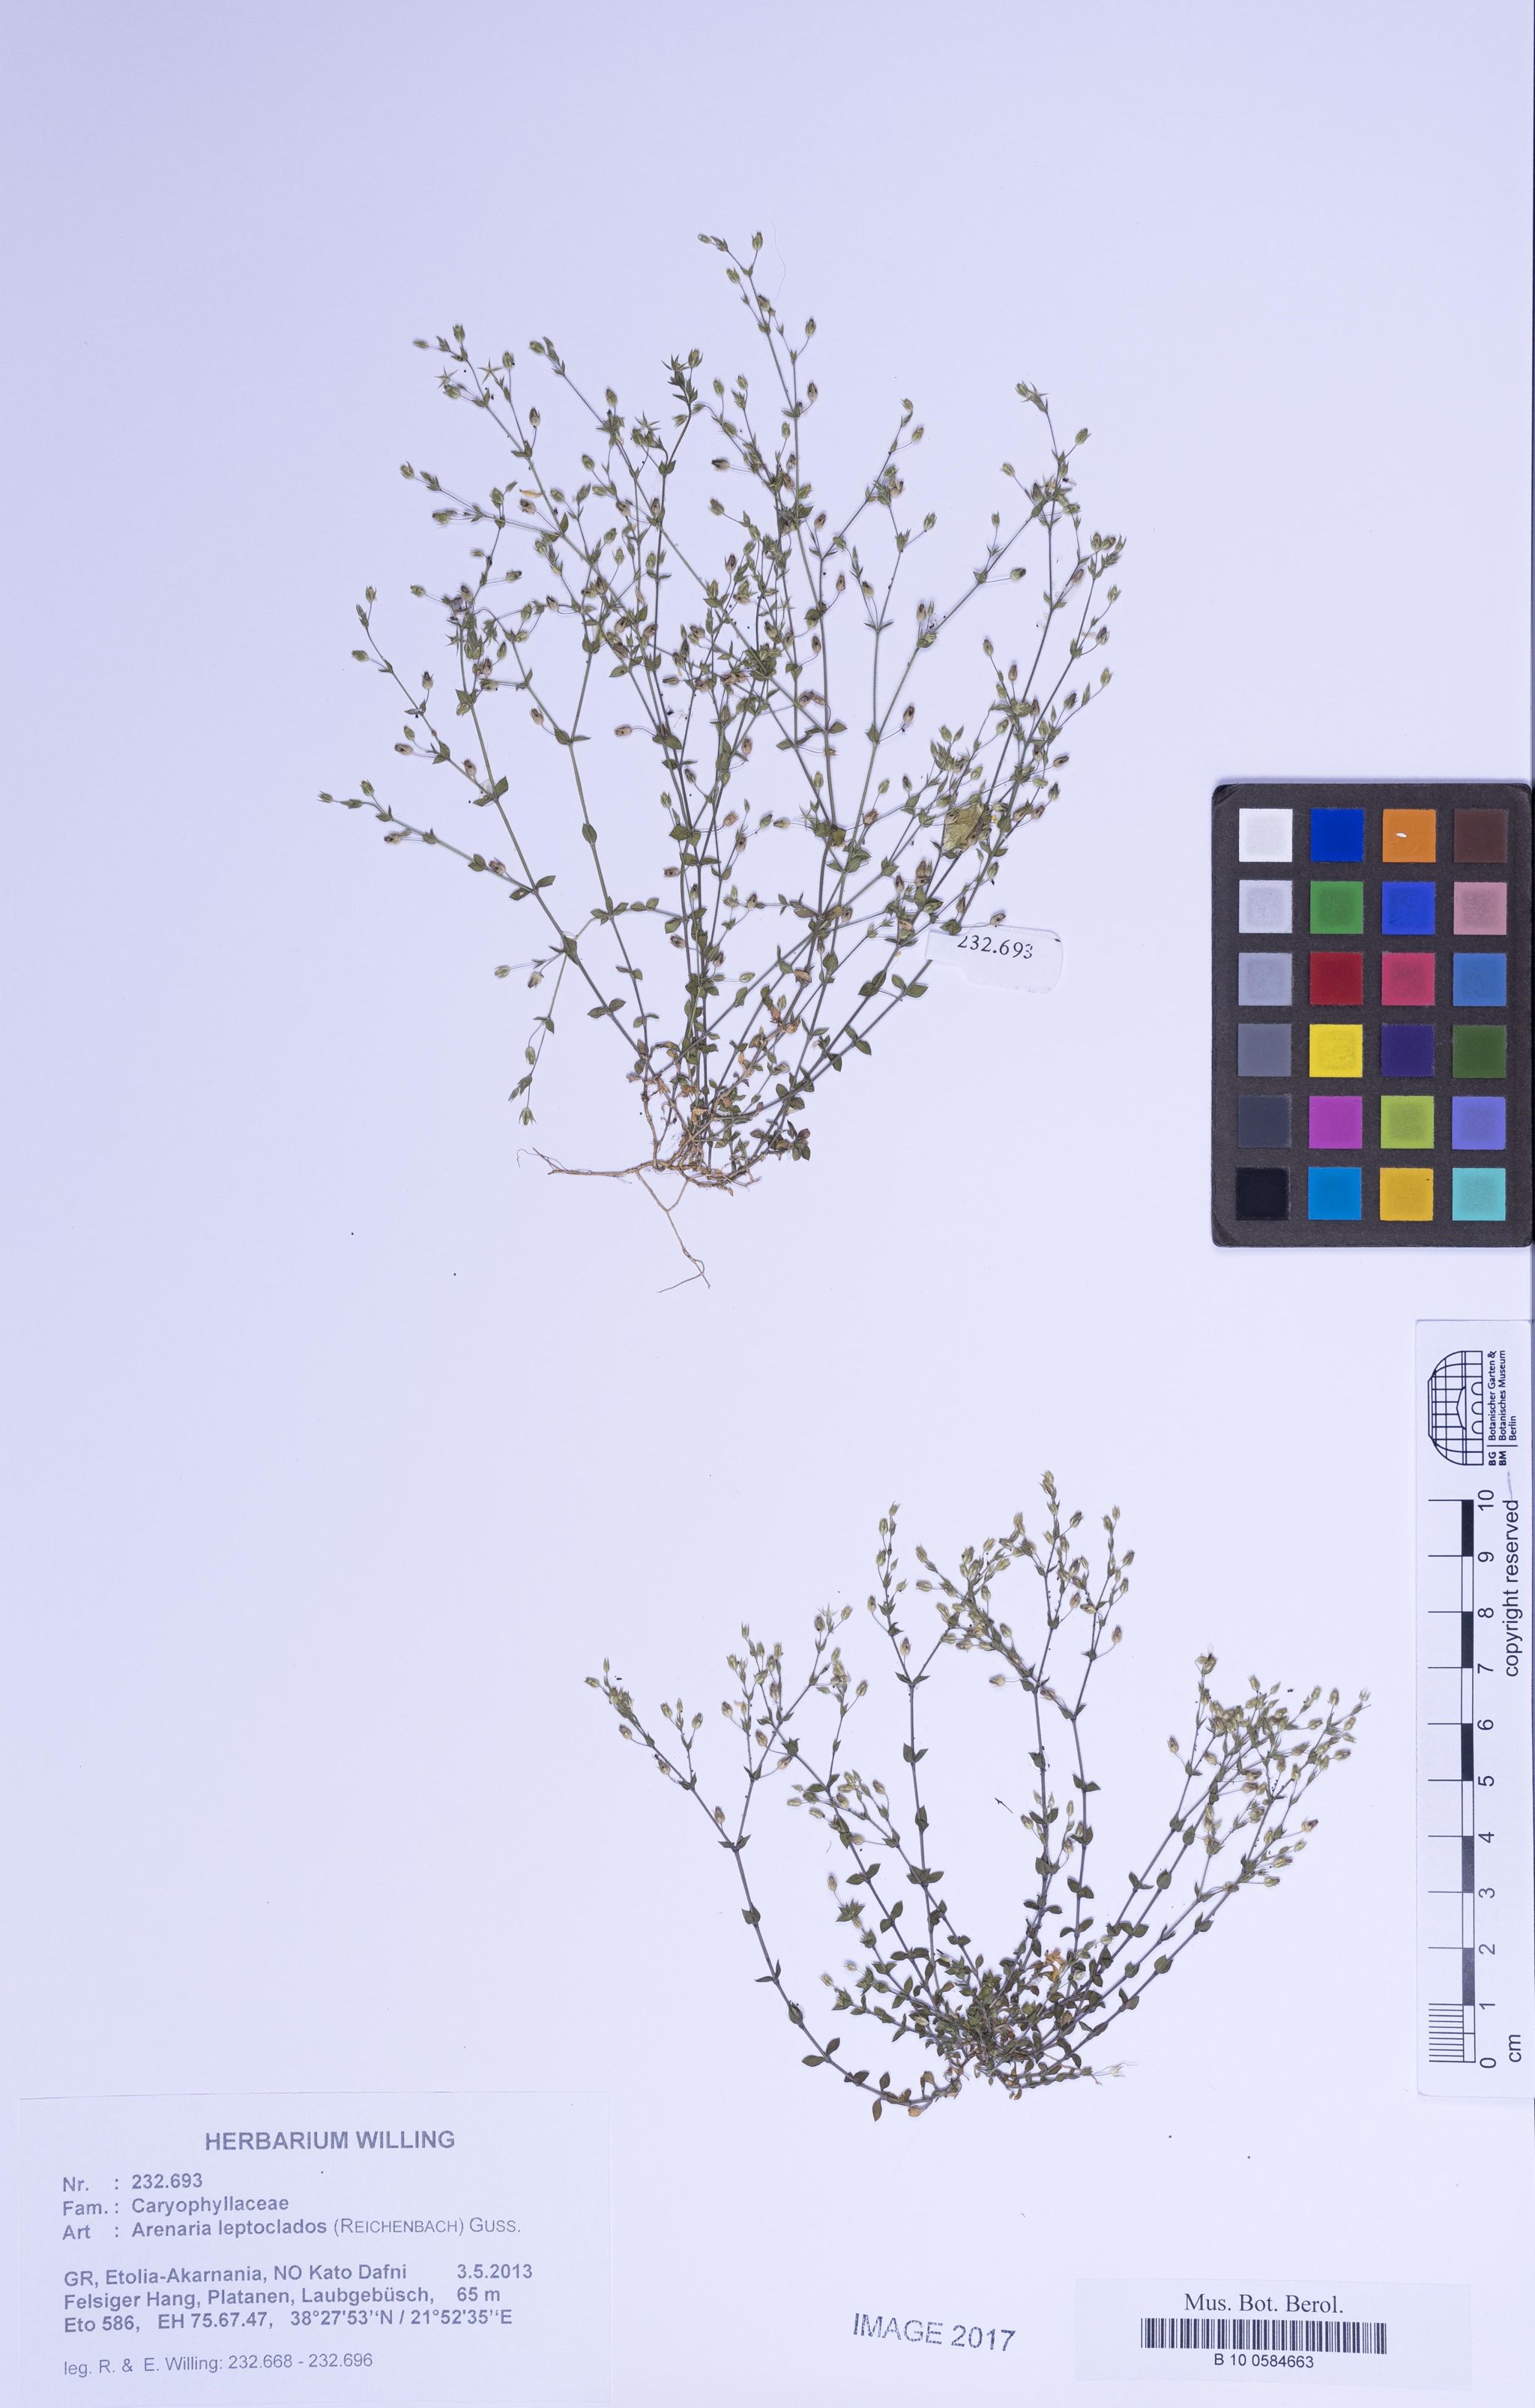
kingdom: Plantae
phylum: Tracheophyta
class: Magnoliopsida
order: Caryophyllales
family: Caryophyllaceae
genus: Arenaria
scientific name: Arenaria leptoclados
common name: Thyme-leaved sandwort
